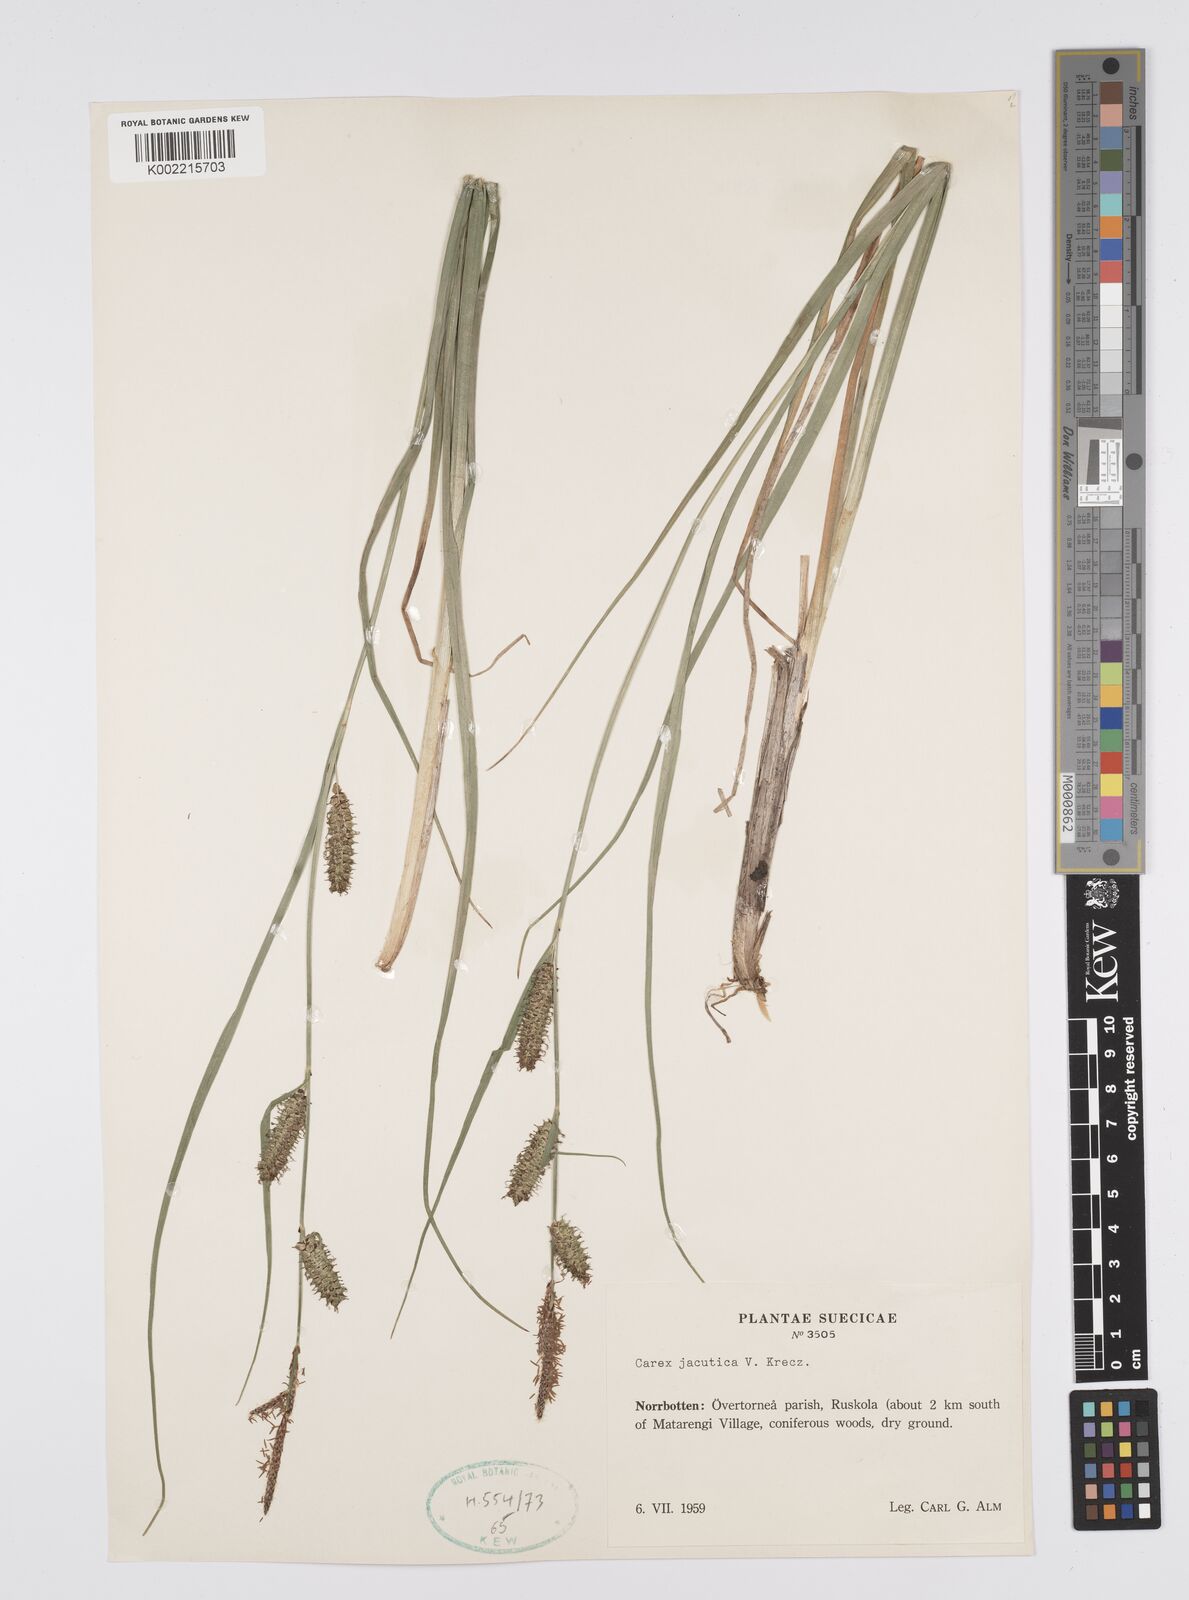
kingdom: Plantae
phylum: Tracheophyta
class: Liliopsida
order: Poales
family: Cyperaceae
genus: Carex
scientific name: Carex jacutica
